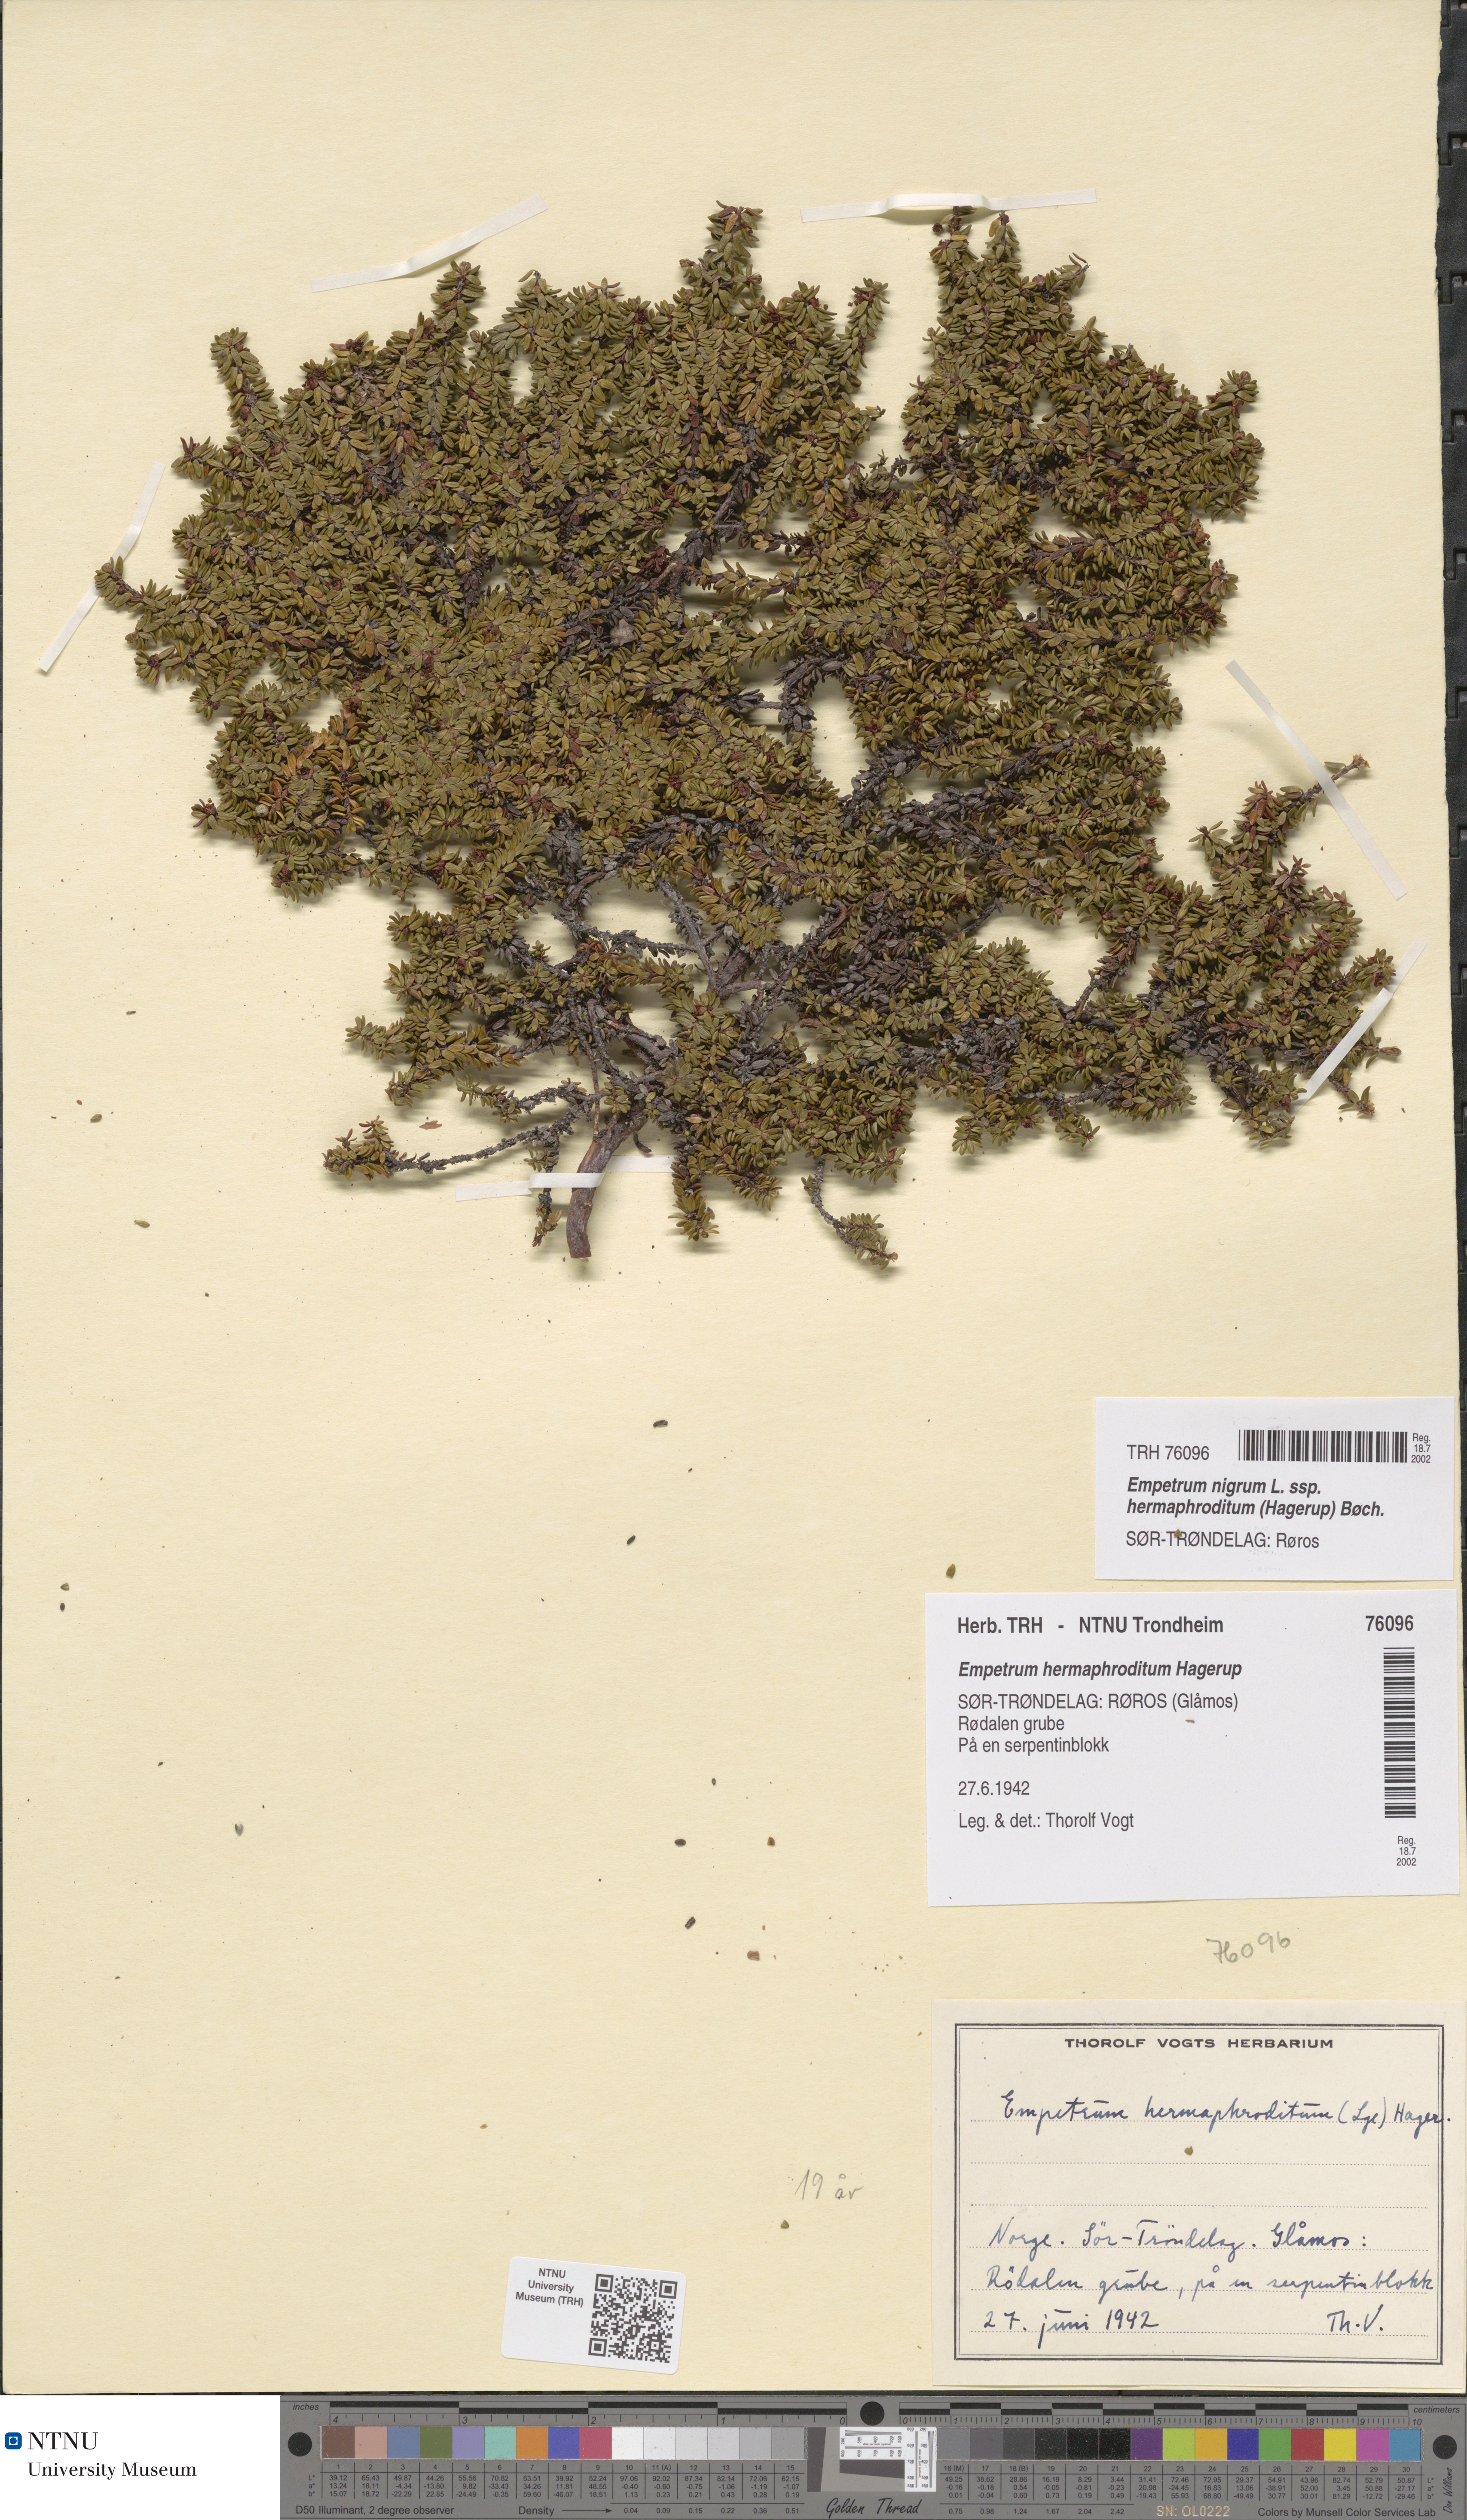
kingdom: Plantae
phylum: Tracheophyta
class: Magnoliopsida
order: Ericales
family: Ericaceae
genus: Empetrum
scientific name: Empetrum hermaphroditum
